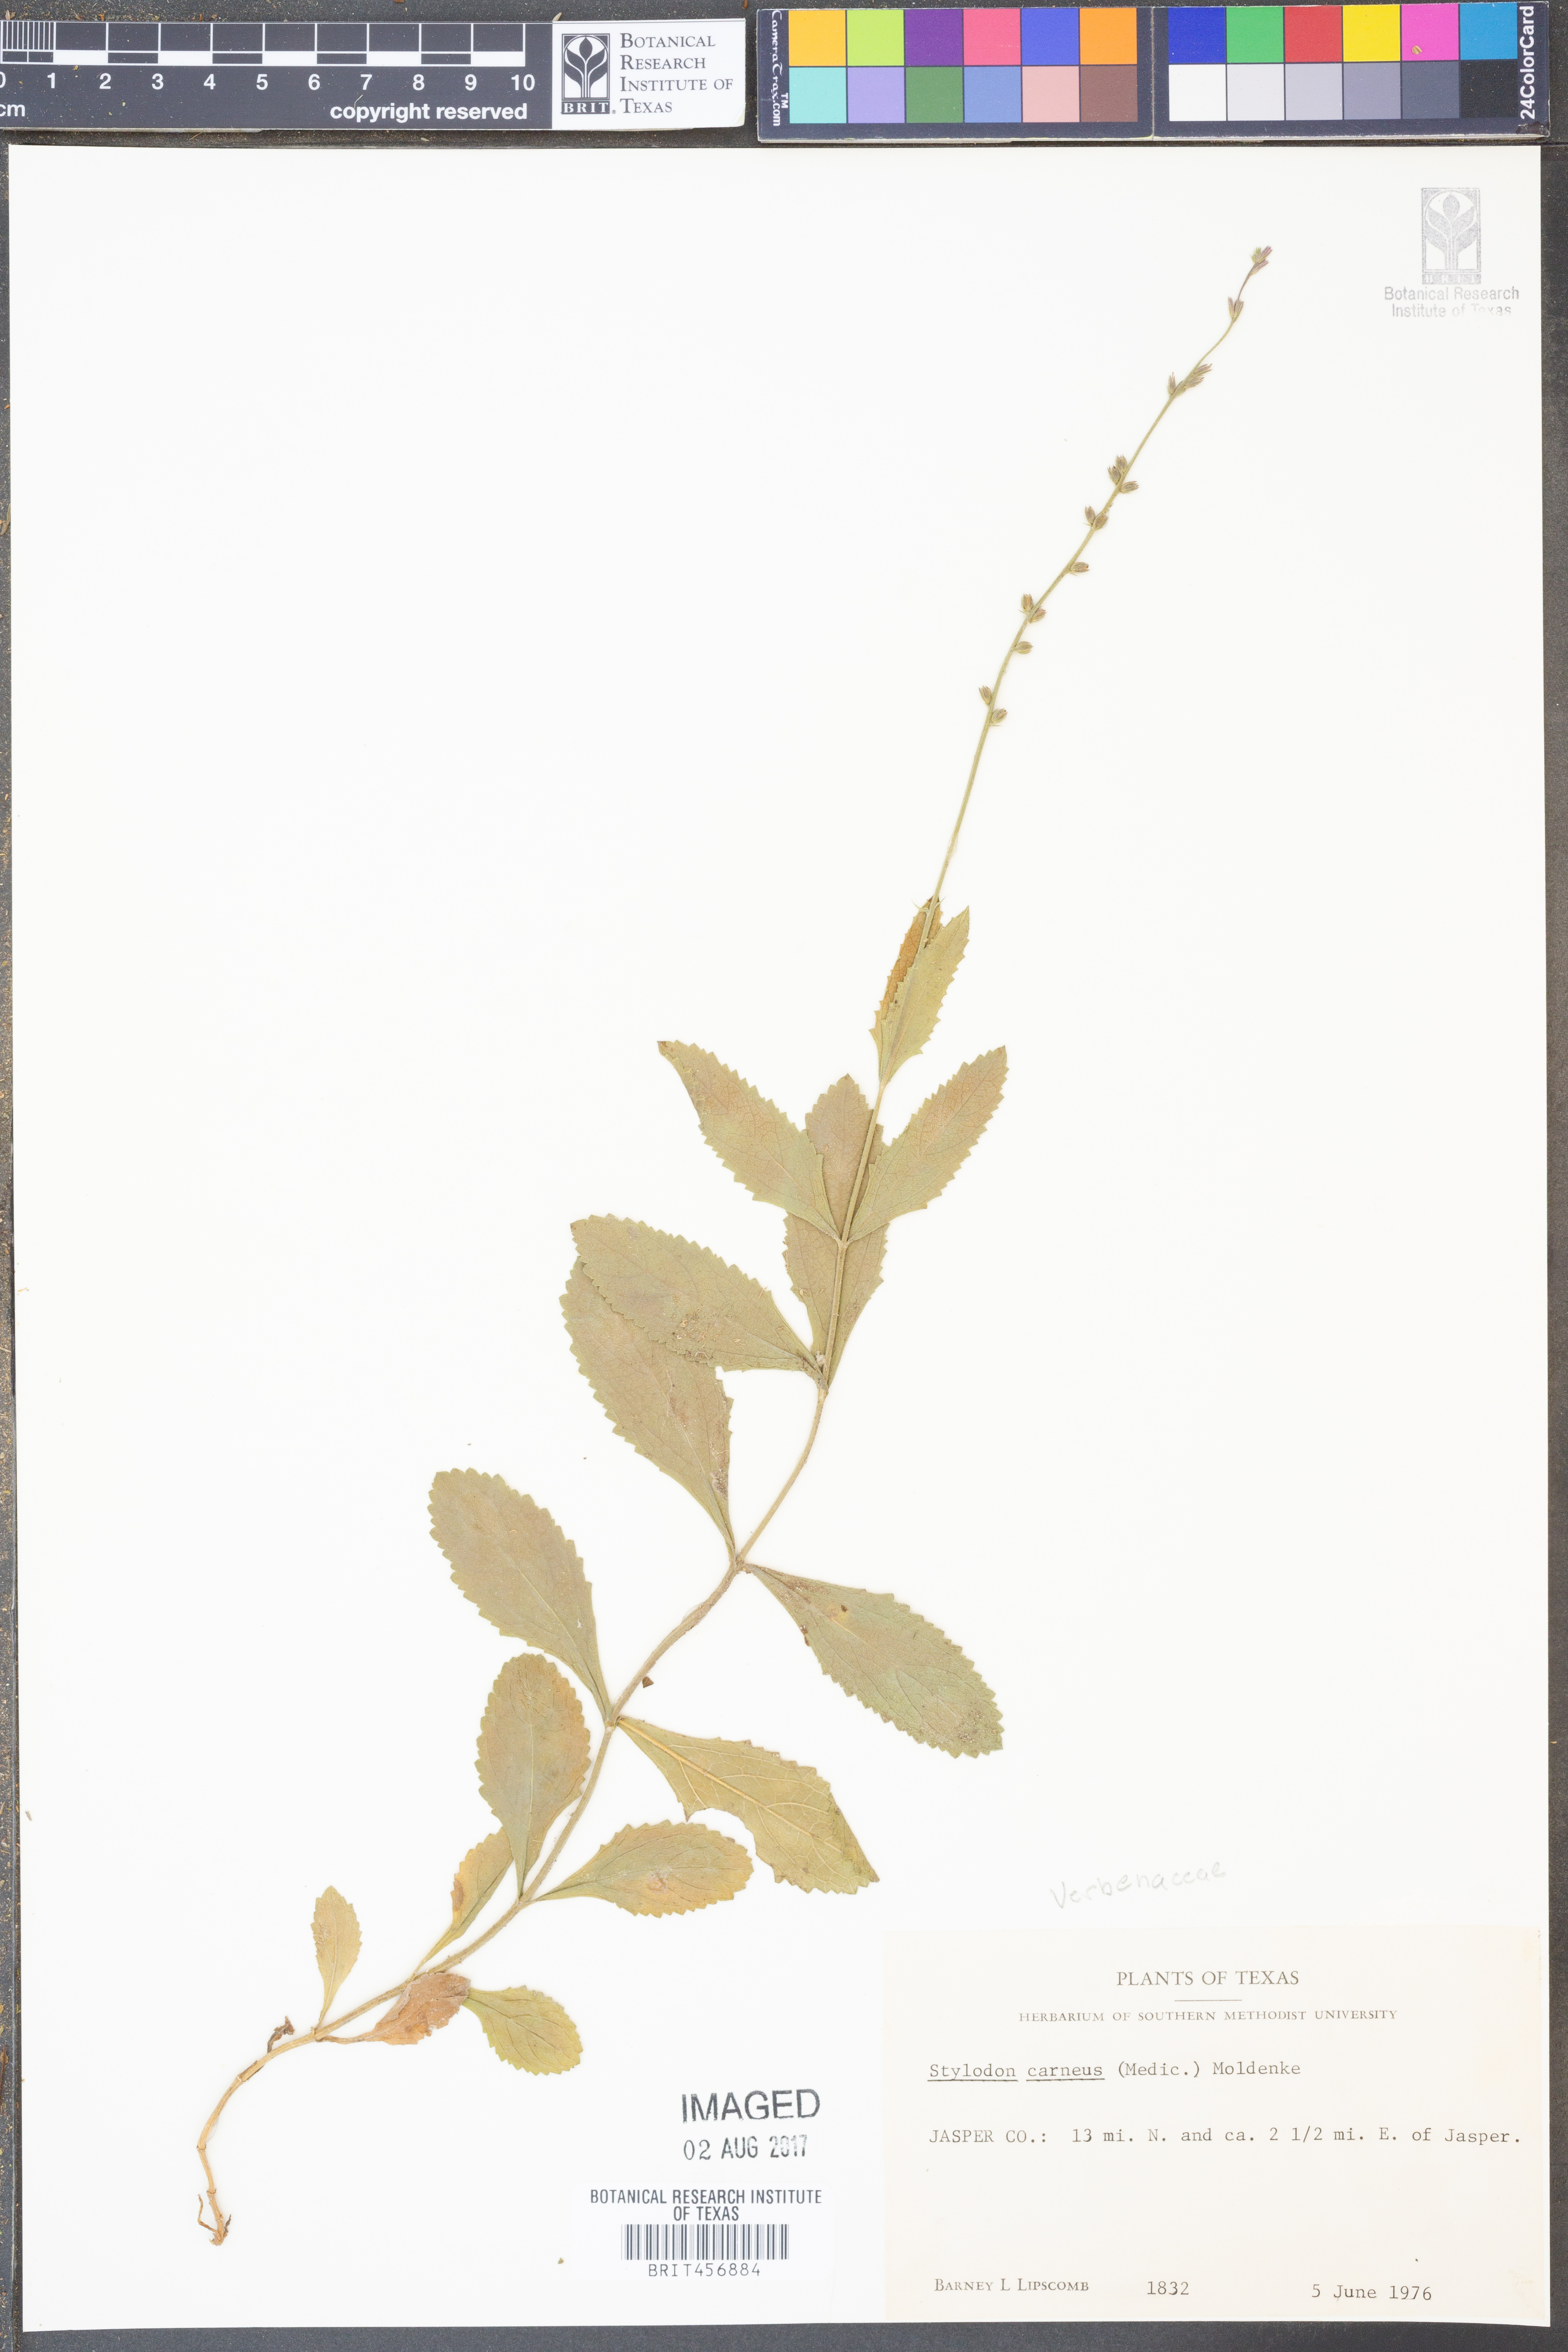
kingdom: Plantae
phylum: Tracheophyta
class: Magnoliopsida
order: Lamiales
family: Verbenaceae
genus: Verbena
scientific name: Verbena carnea
